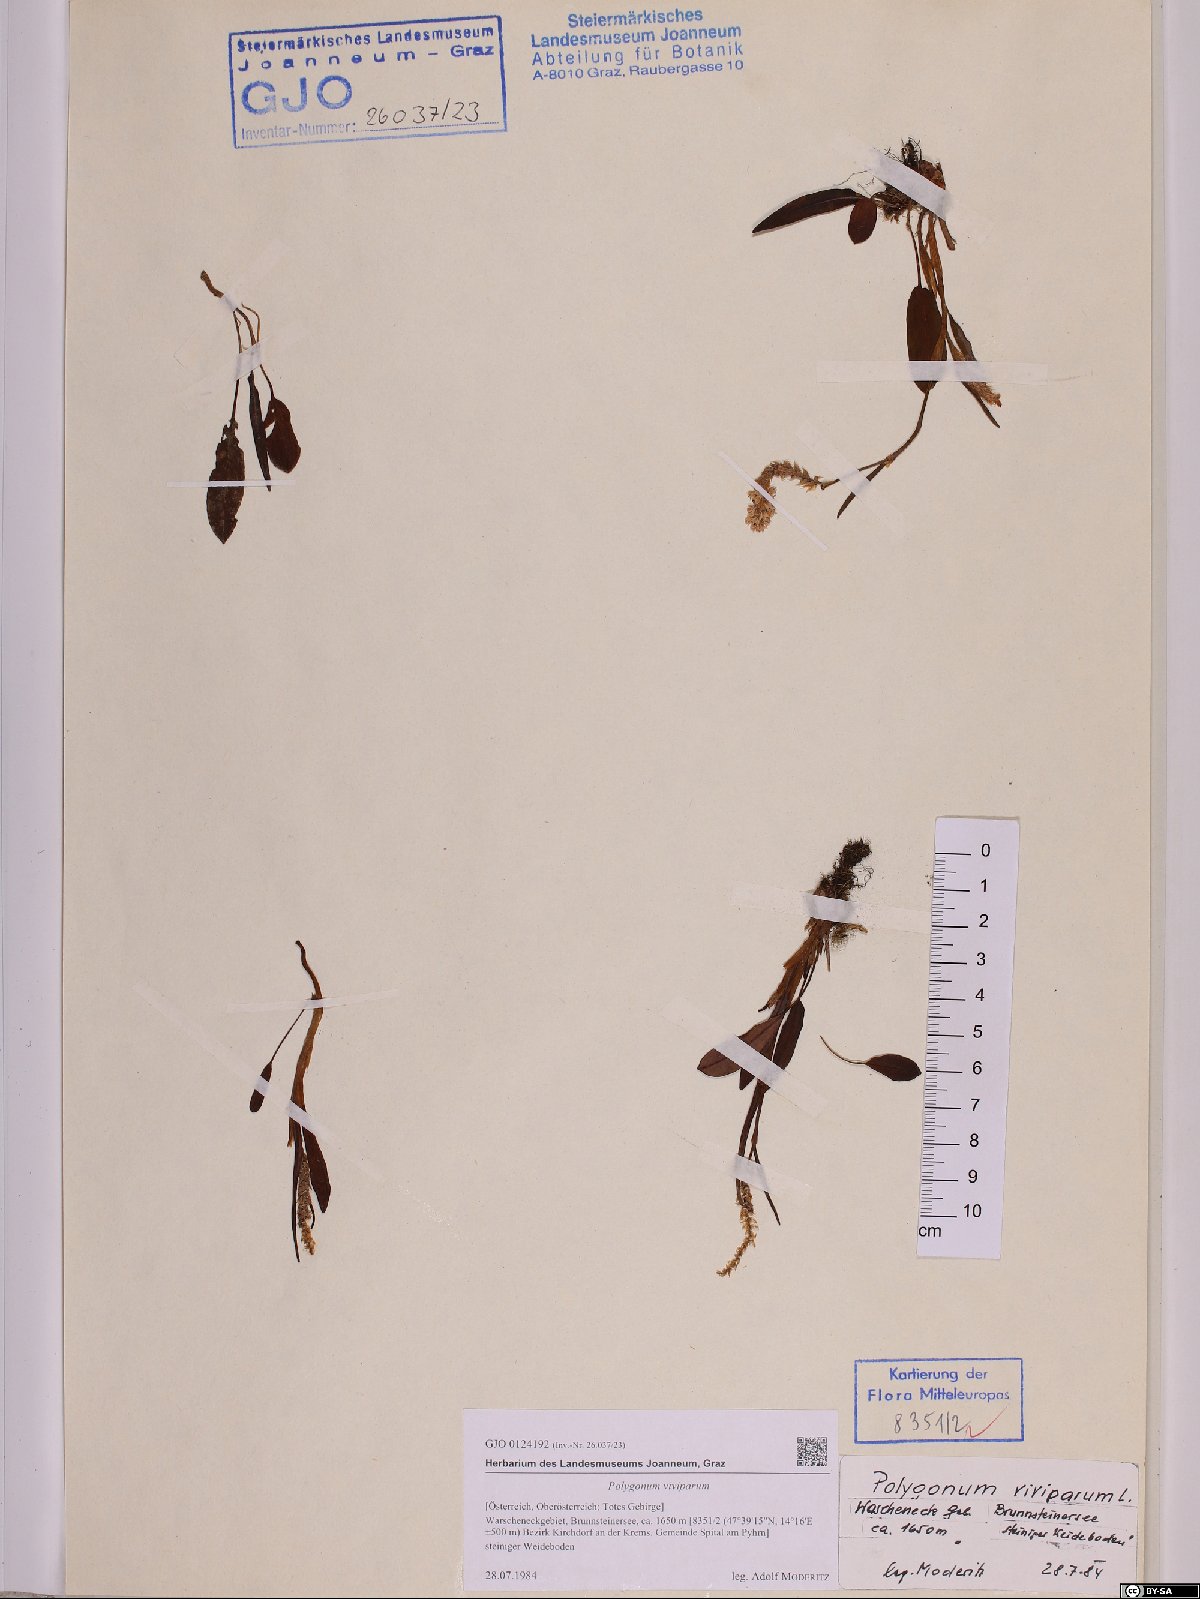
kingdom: Plantae
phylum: Tracheophyta
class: Magnoliopsida
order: Caryophyllales
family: Polygonaceae
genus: Bistorta
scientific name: Bistorta vivipara
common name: Alpine bistort
